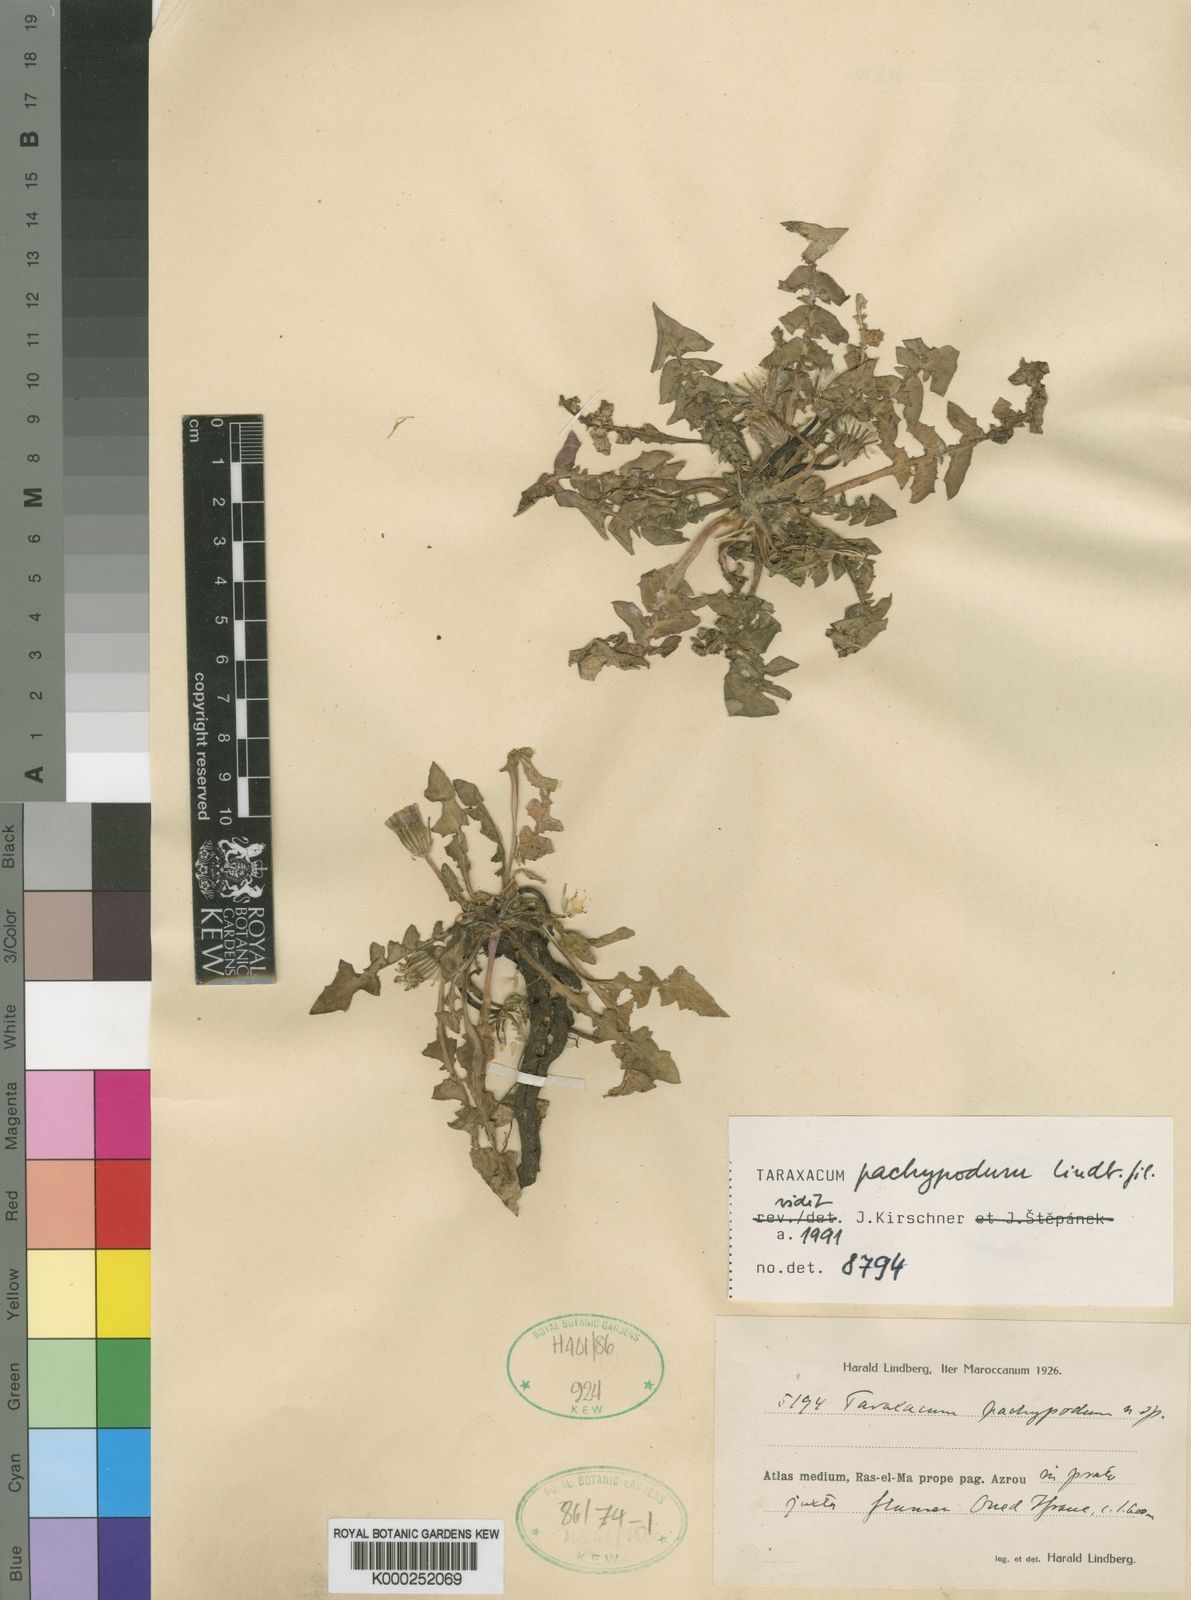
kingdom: Plantae
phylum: Tracheophyta
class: Magnoliopsida
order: Asterales
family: Asteraceae
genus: Taraxacum
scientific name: Taraxacum atlanticum
